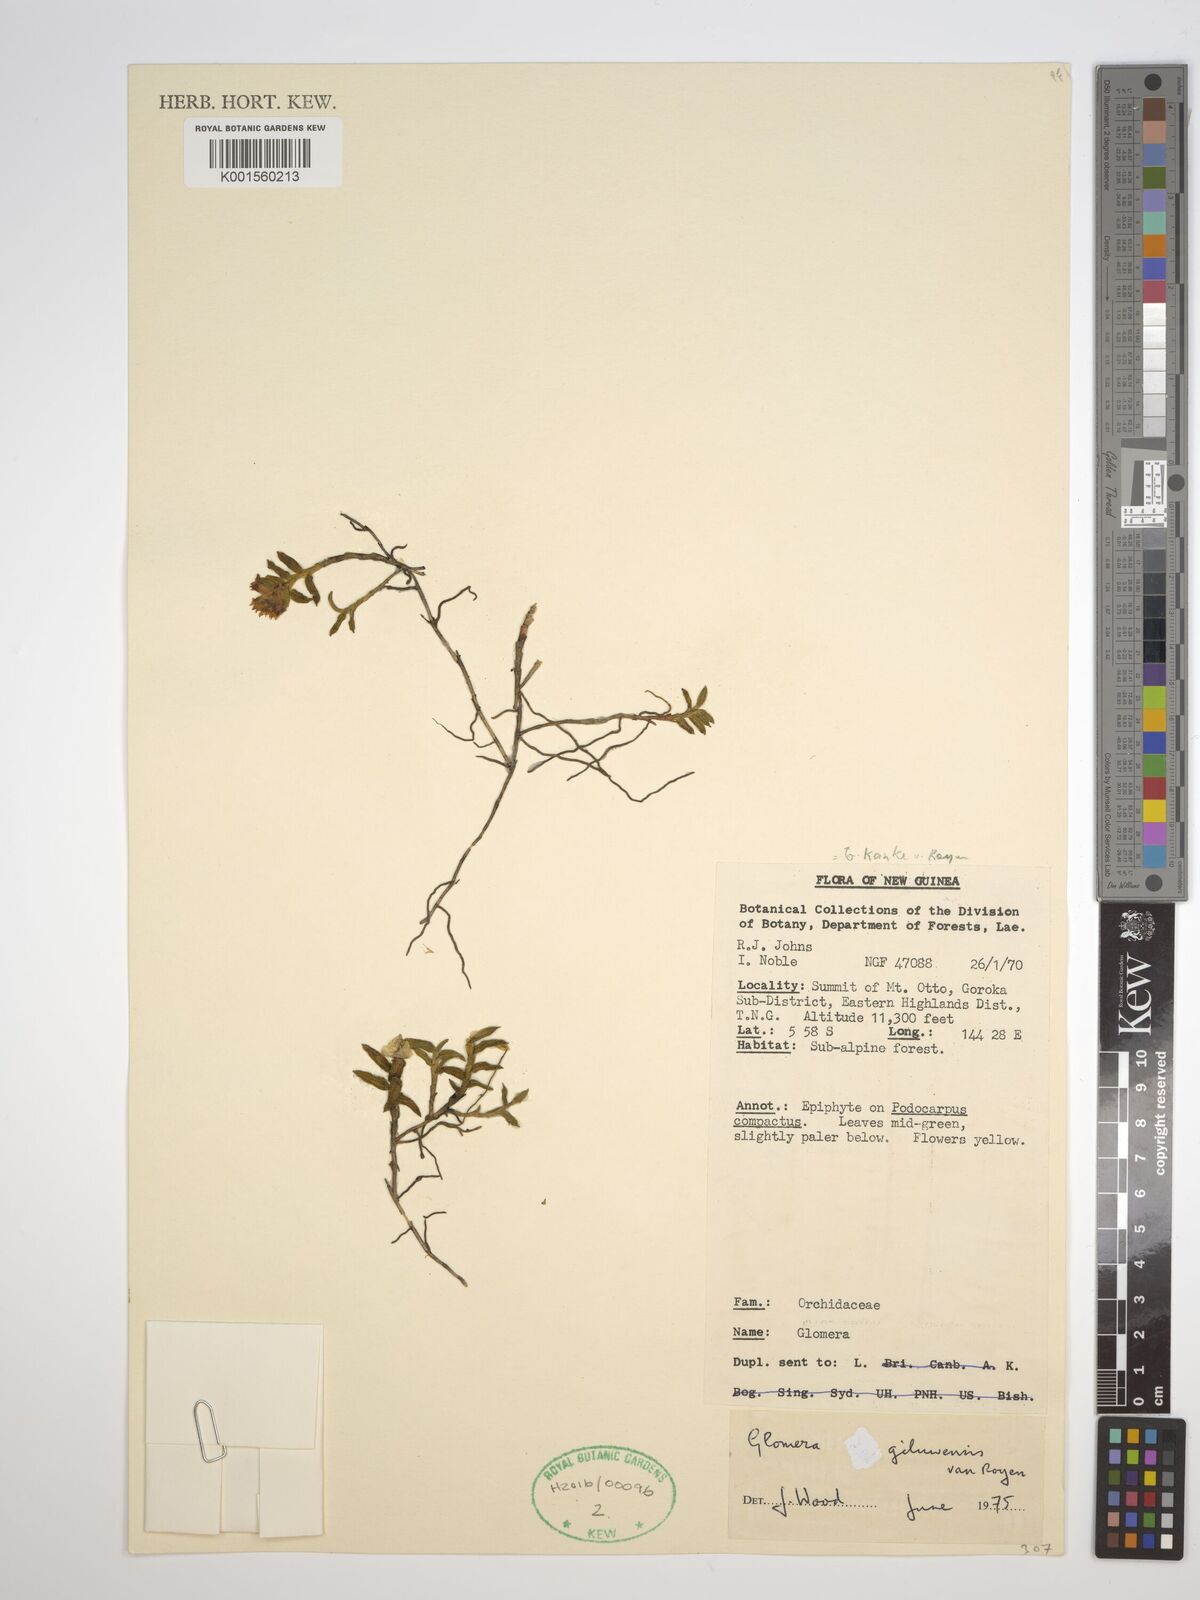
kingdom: Plantae
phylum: Tracheophyta
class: Liliopsida
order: Asparagales
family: Orchidaceae
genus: Glomera
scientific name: Glomera kanke
